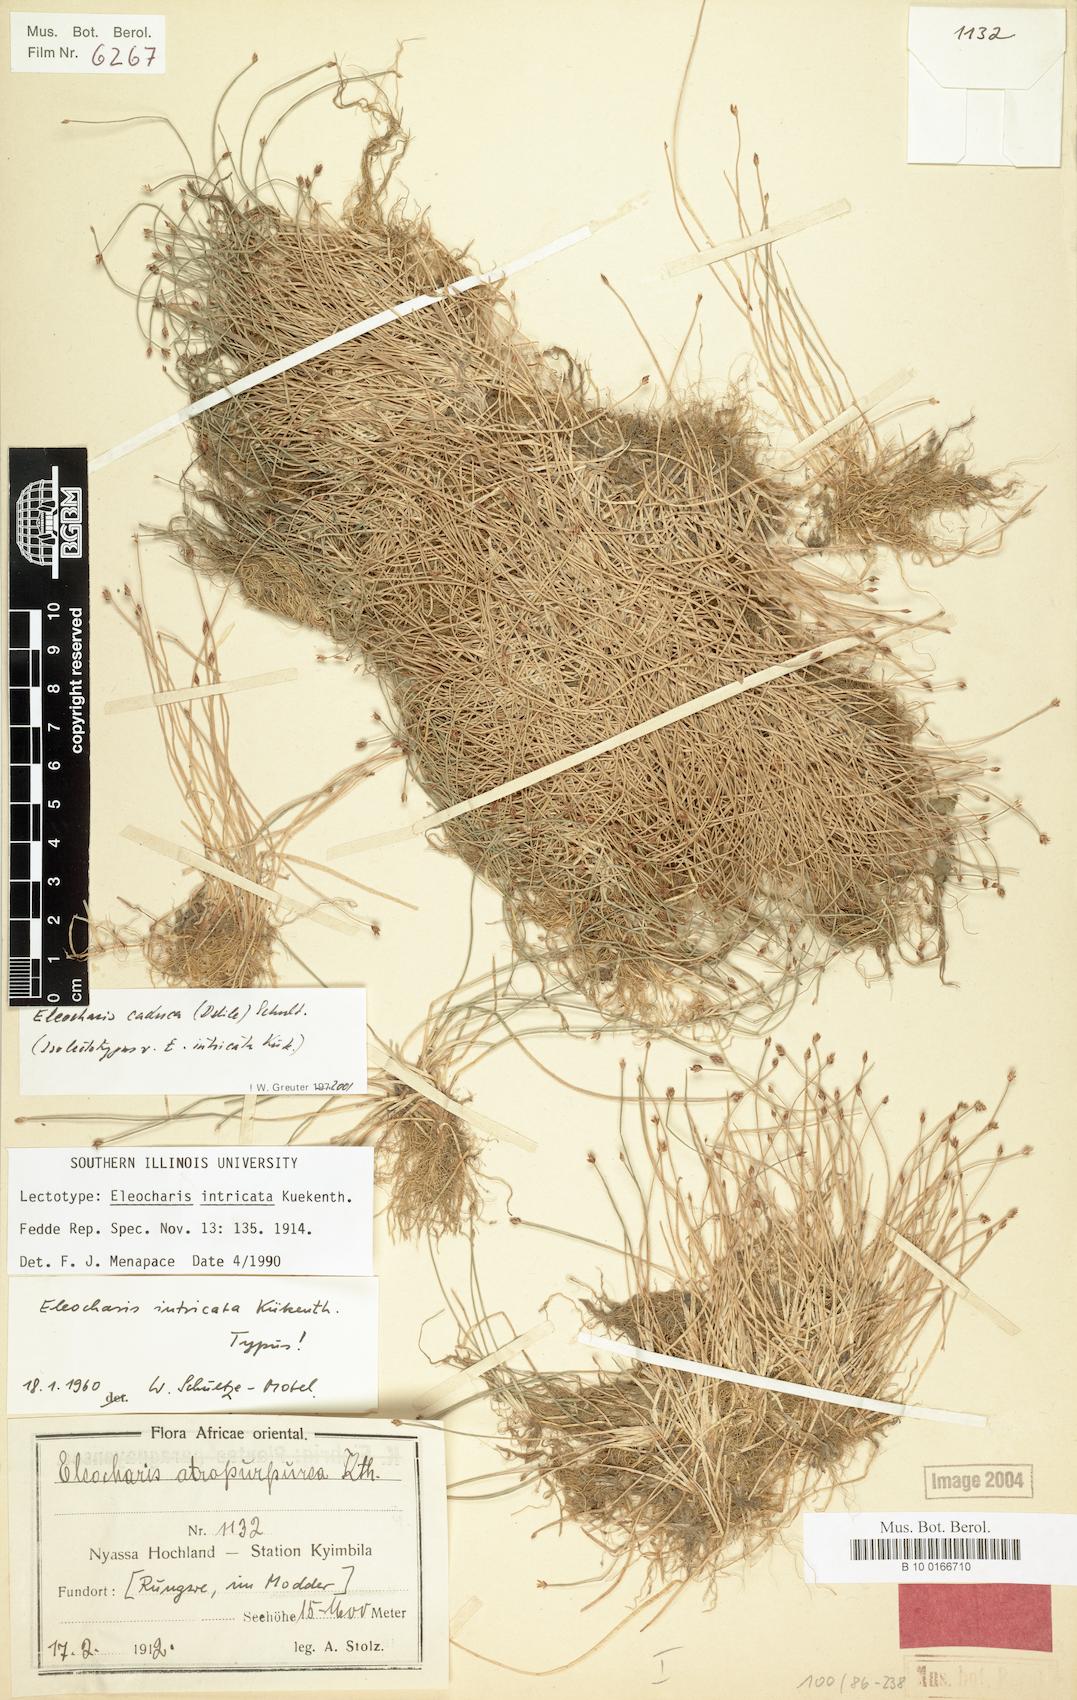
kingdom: Plantae
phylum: Tracheophyta
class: Liliopsida
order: Poales
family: Cyperaceae
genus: Eleocharis
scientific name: Eleocharis caduca
